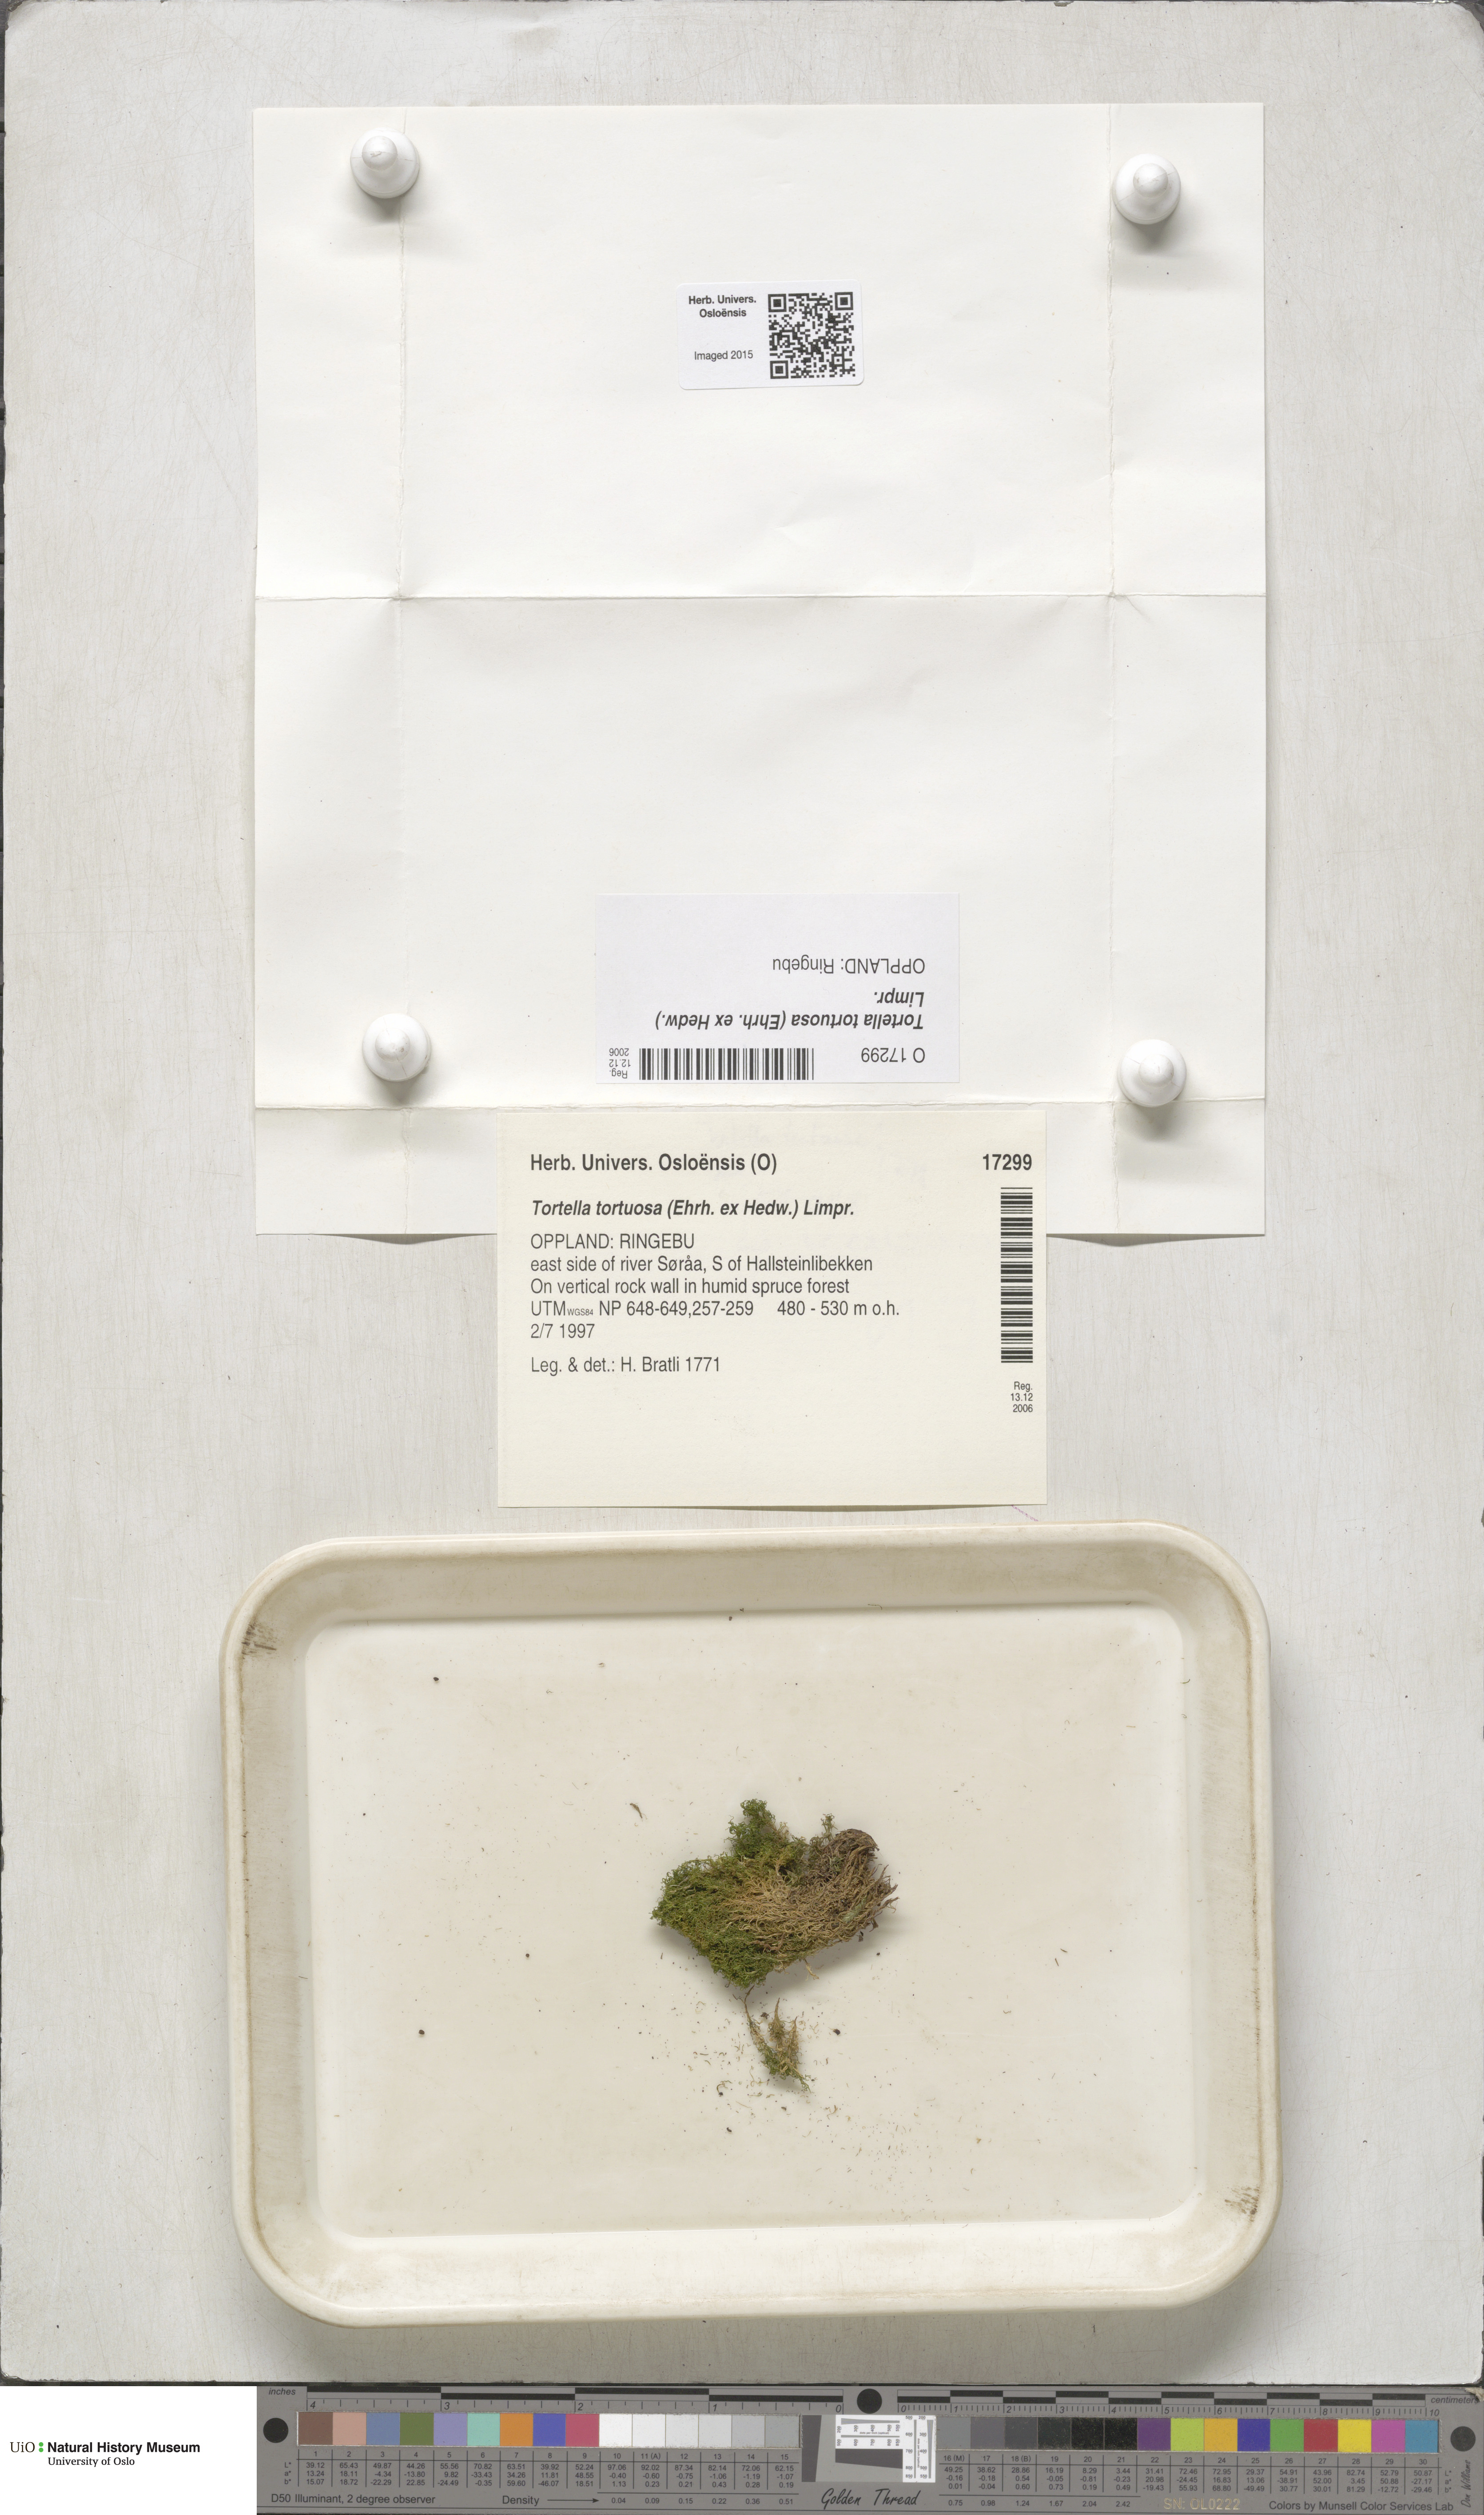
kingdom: Plantae
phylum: Bryophyta
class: Bryopsida
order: Pottiales
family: Pottiaceae
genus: Tortella
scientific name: Tortella tortuosa
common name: Frizzled crisp moss
